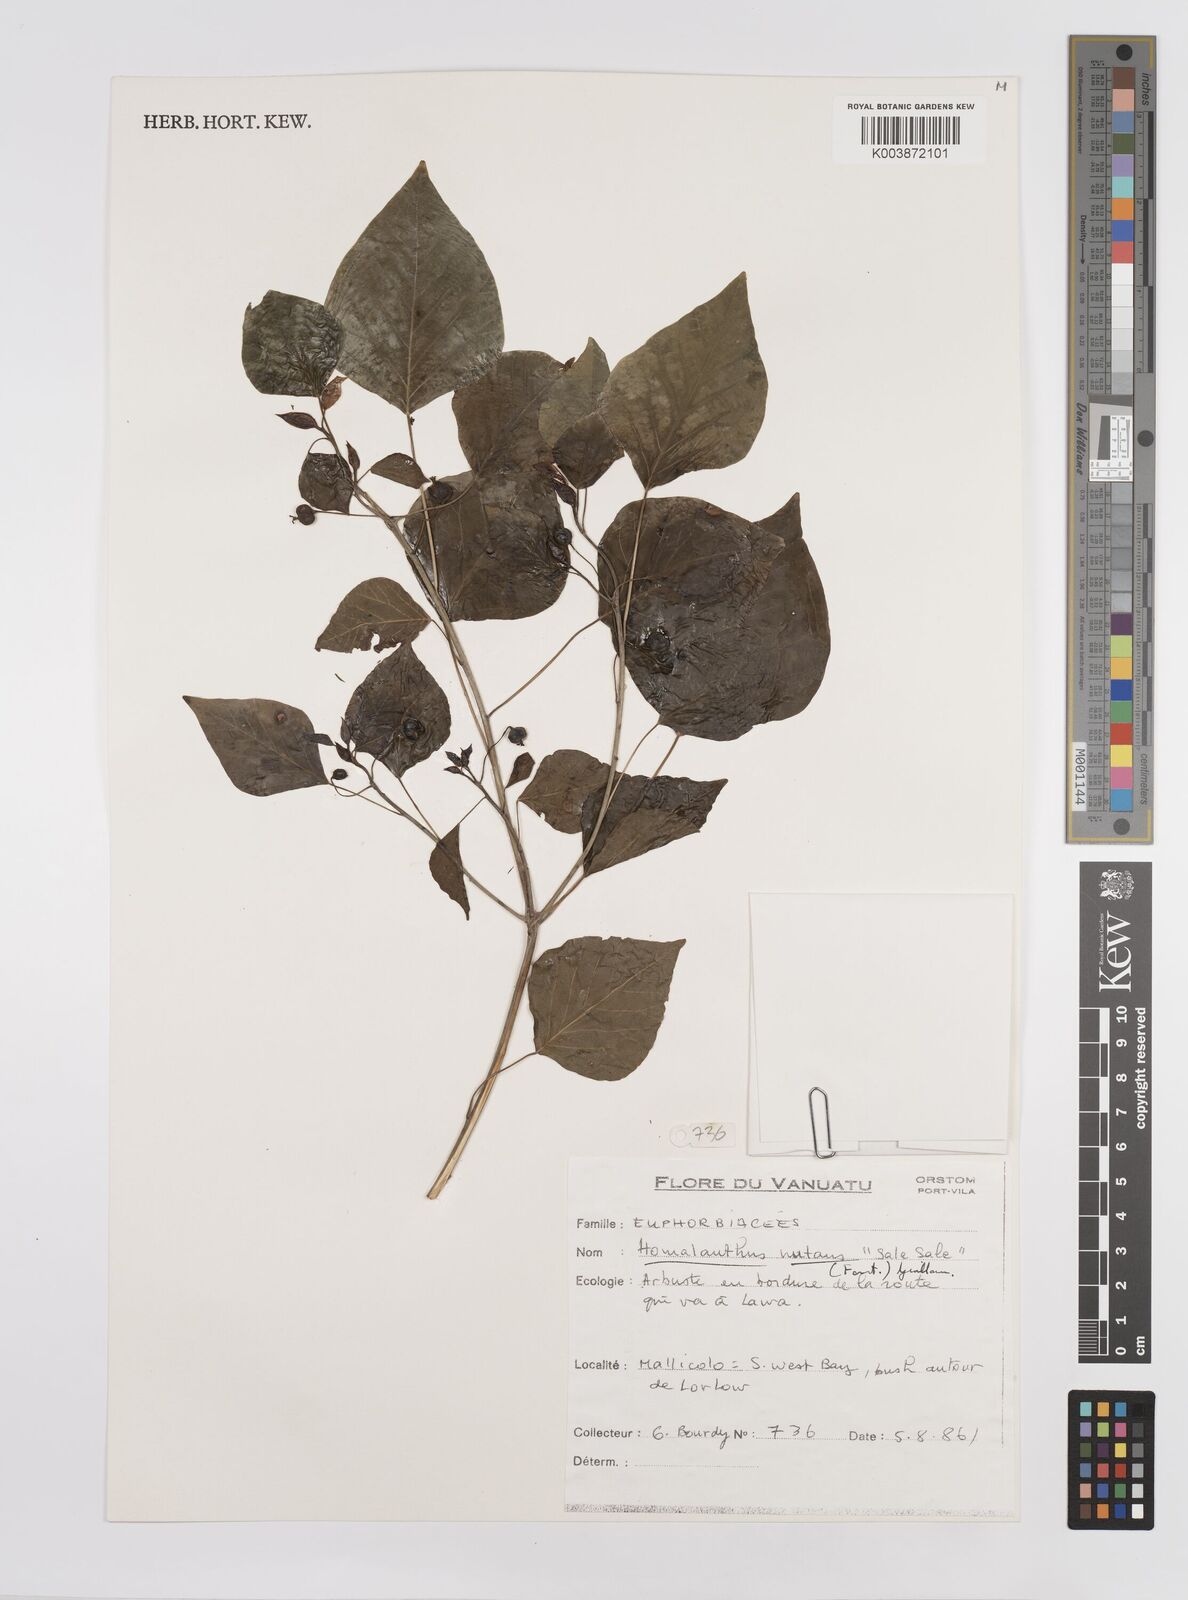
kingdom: Plantae
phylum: Tracheophyta
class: Magnoliopsida
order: Malpighiales
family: Euphorbiaceae
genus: Homalanthus
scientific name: Homalanthus nutans
